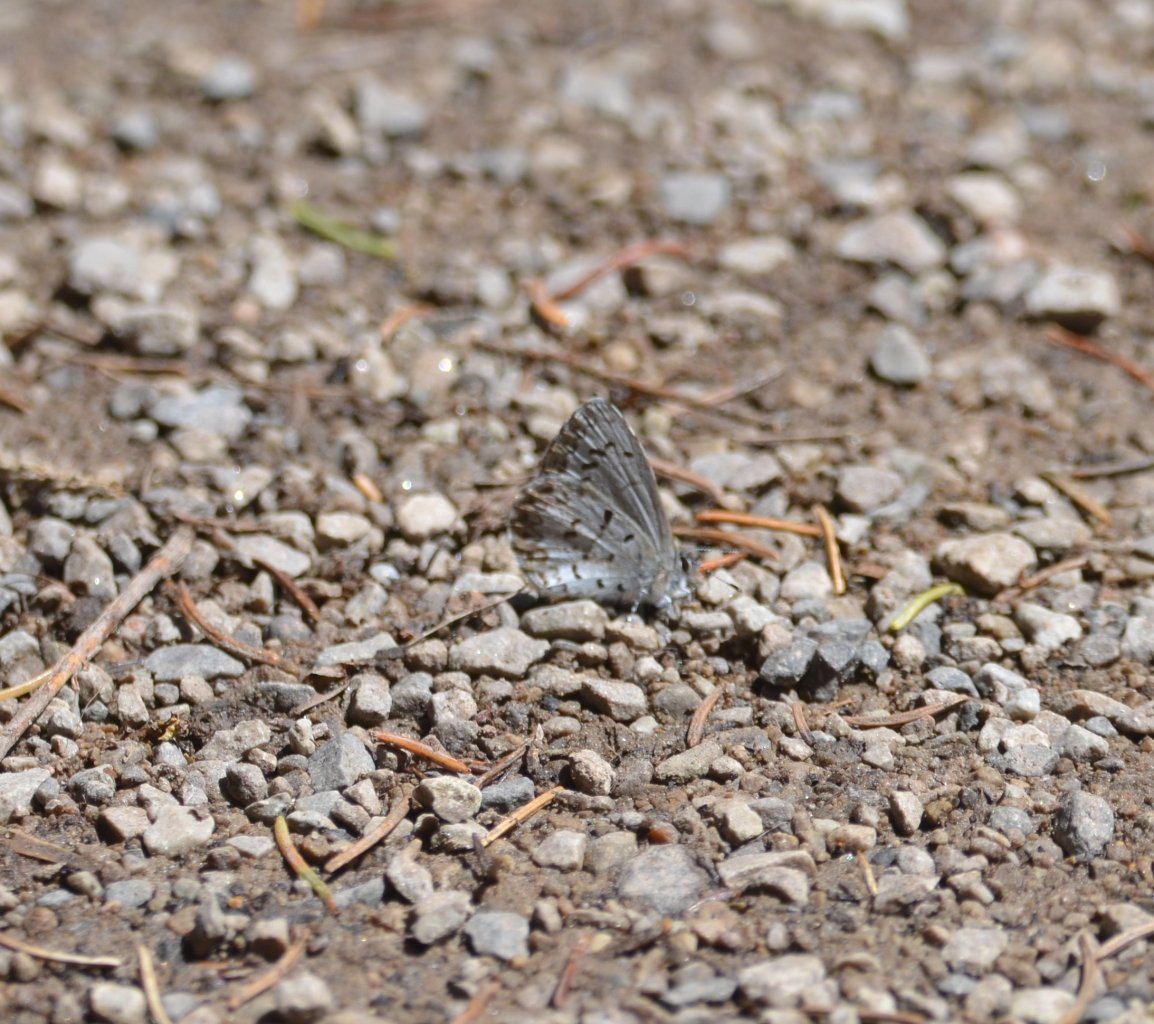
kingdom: Animalia
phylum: Arthropoda
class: Insecta
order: Lepidoptera
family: Lycaenidae
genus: Celastrina
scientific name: Celastrina lucia
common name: Northern Spring Azure
